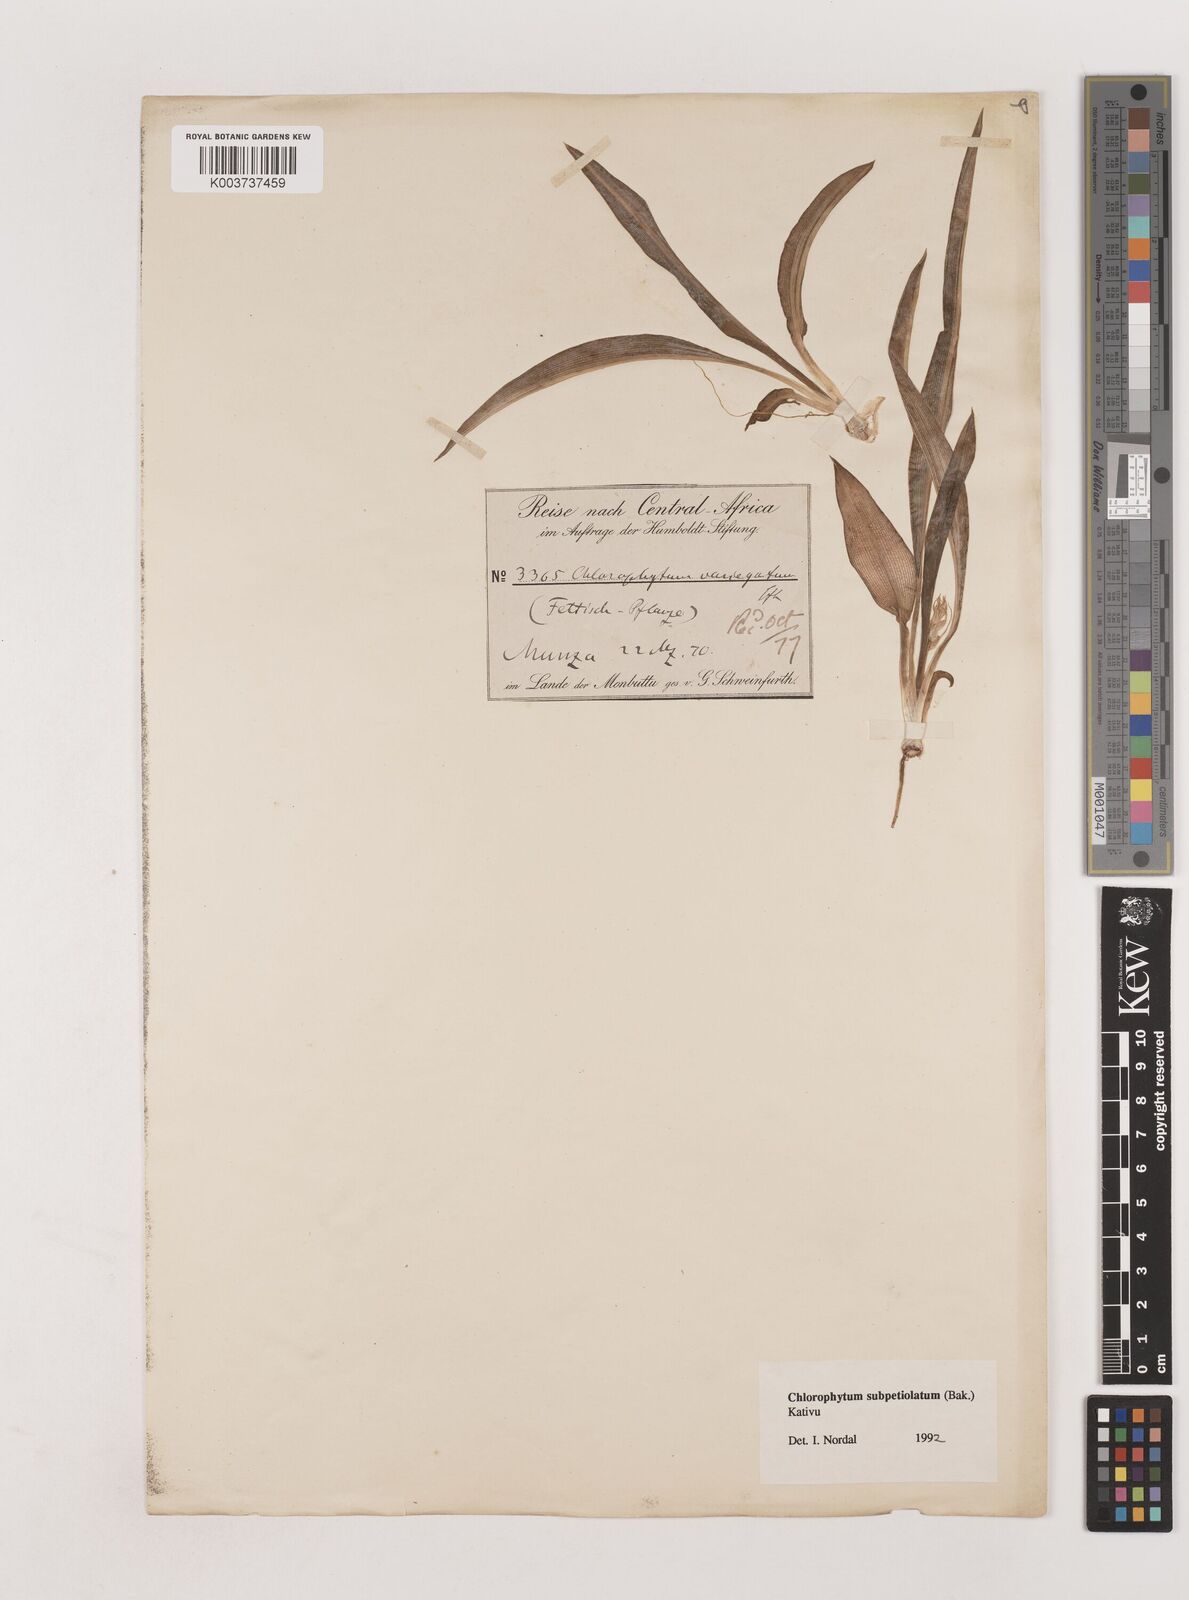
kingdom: Plantae
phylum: Tracheophyta
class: Liliopsida
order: Asparagales
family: Asparagaceae
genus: Chlorophytum
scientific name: Chlorophytum subpetiolatum
